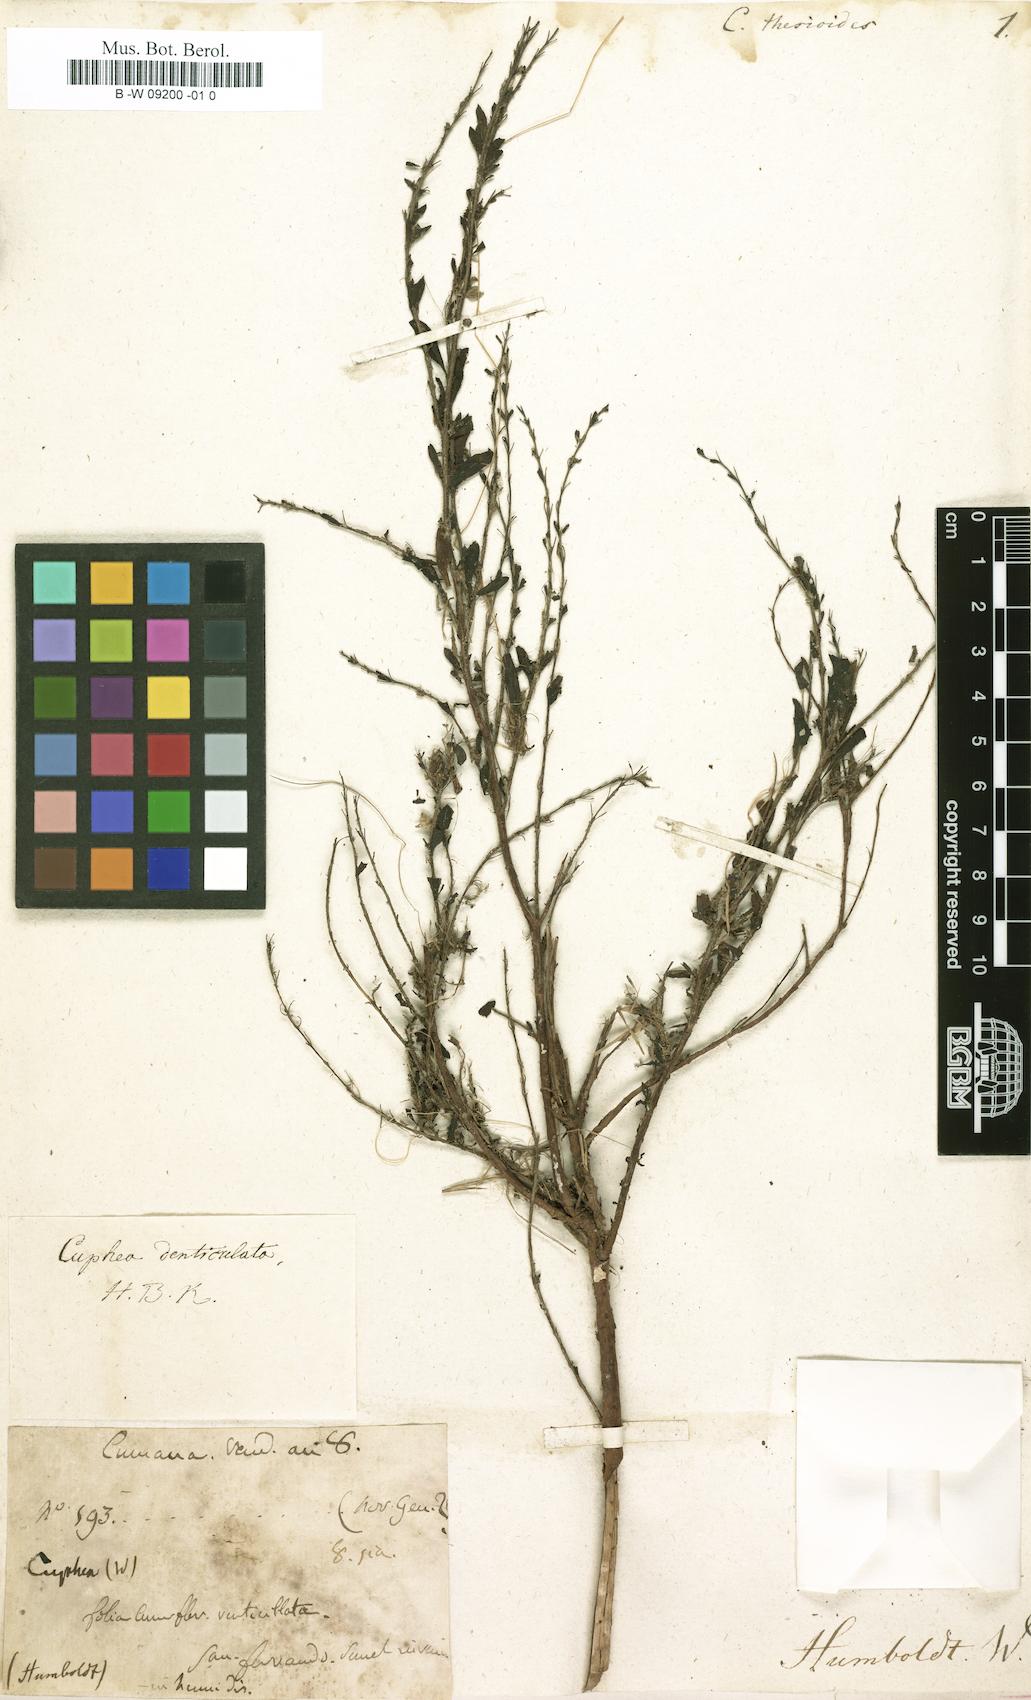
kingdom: Plantae
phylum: Tracheophyta
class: Magnoliopsida
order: Myrtales
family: Lythraceae
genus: Cuphea
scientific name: Cuphea denticulata
